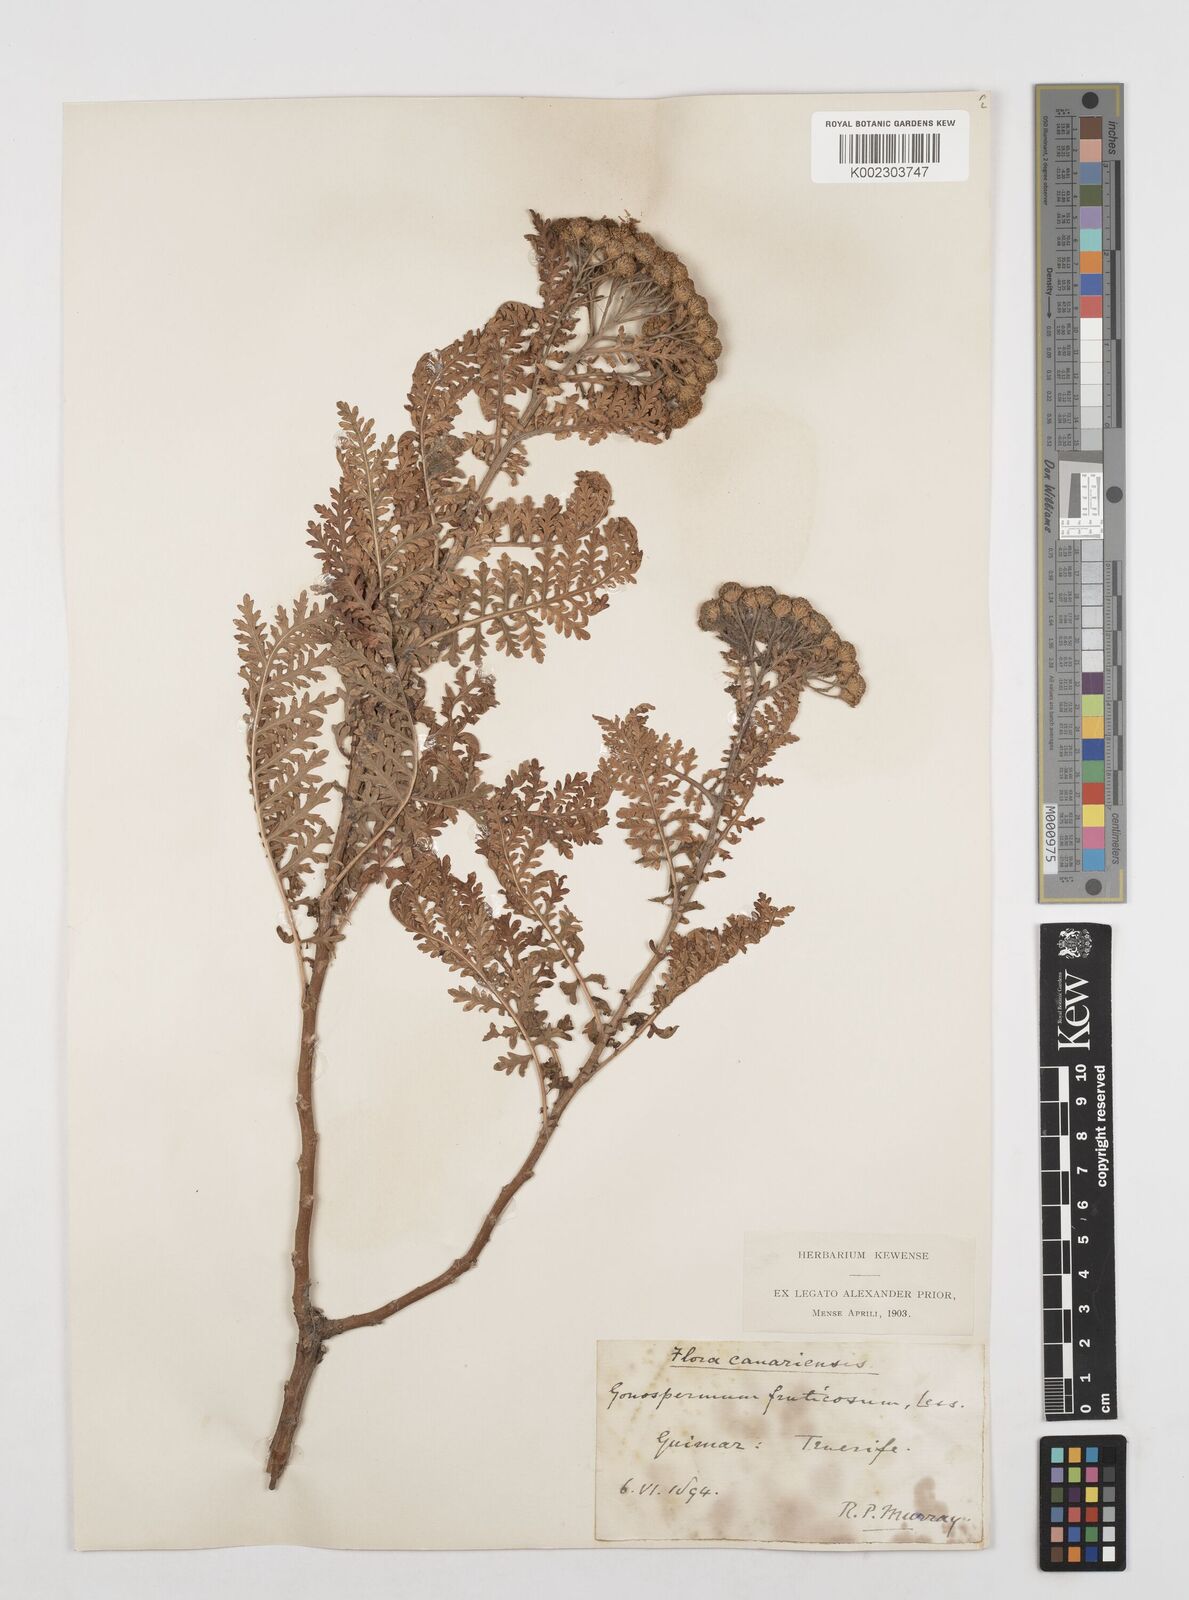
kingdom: Plantae
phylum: Tracheophyta
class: Magnoliopsida
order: Asterales
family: Asteraceae
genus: Gonospermum
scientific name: Gonospermum fruticosum
